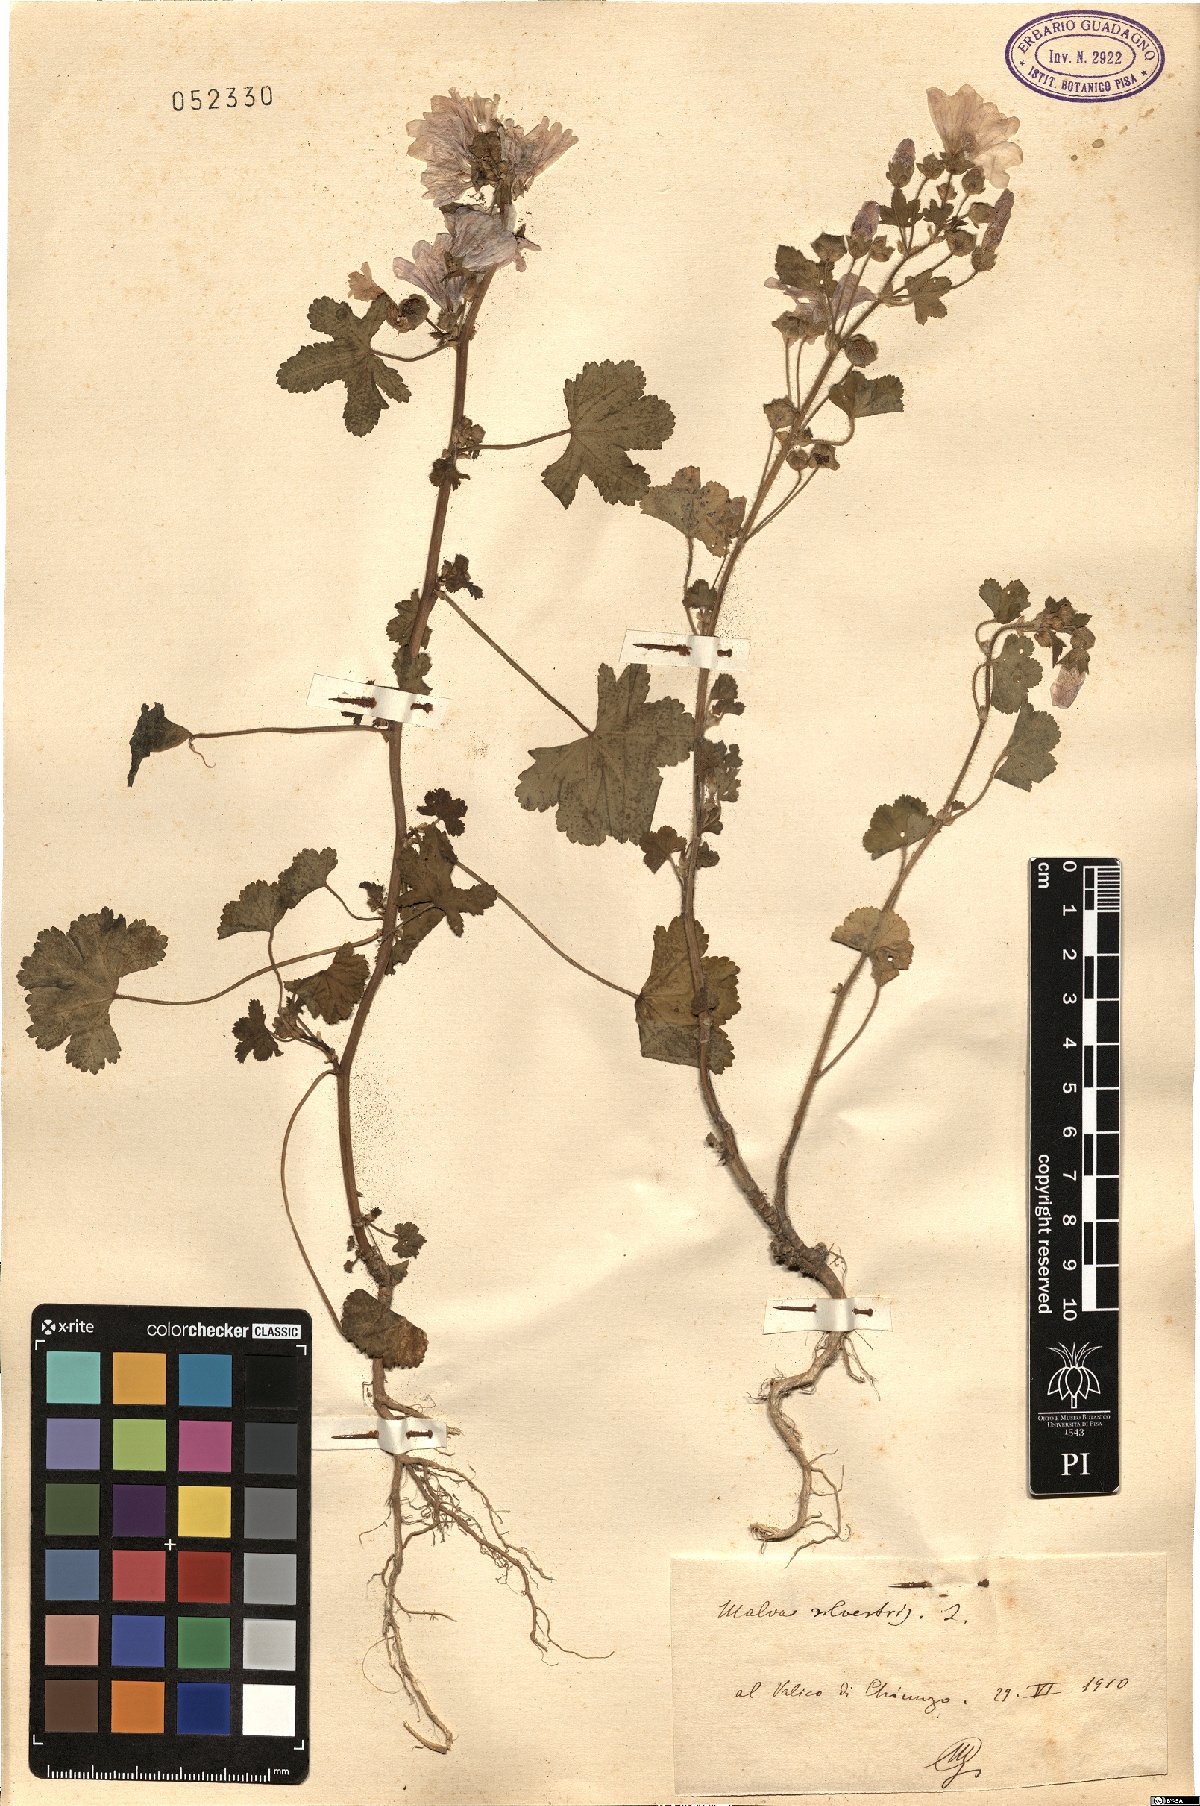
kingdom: Plantae
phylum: Tracheophyta
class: Magnoliopsida
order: Malvales
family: Malvaceae
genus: Malva
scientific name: Malva sylvestris
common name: Common mallow
